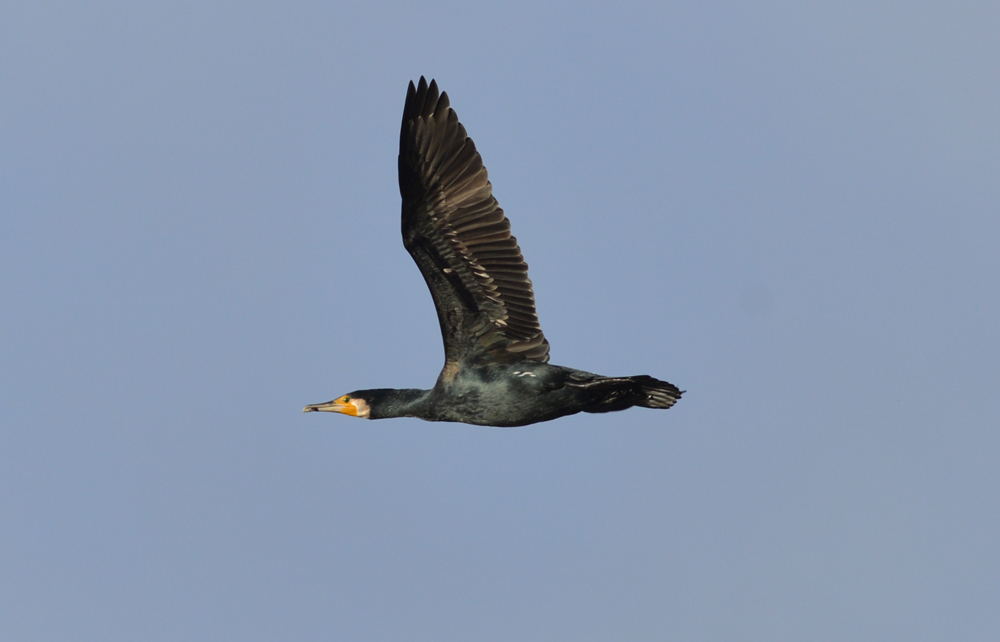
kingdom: Animalia
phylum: Chordata
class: Aves
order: Suliformes
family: Phalacrocoracidae
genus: Phalacrocorax
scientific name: Phalacrocorax carbo
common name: Great cormorant
